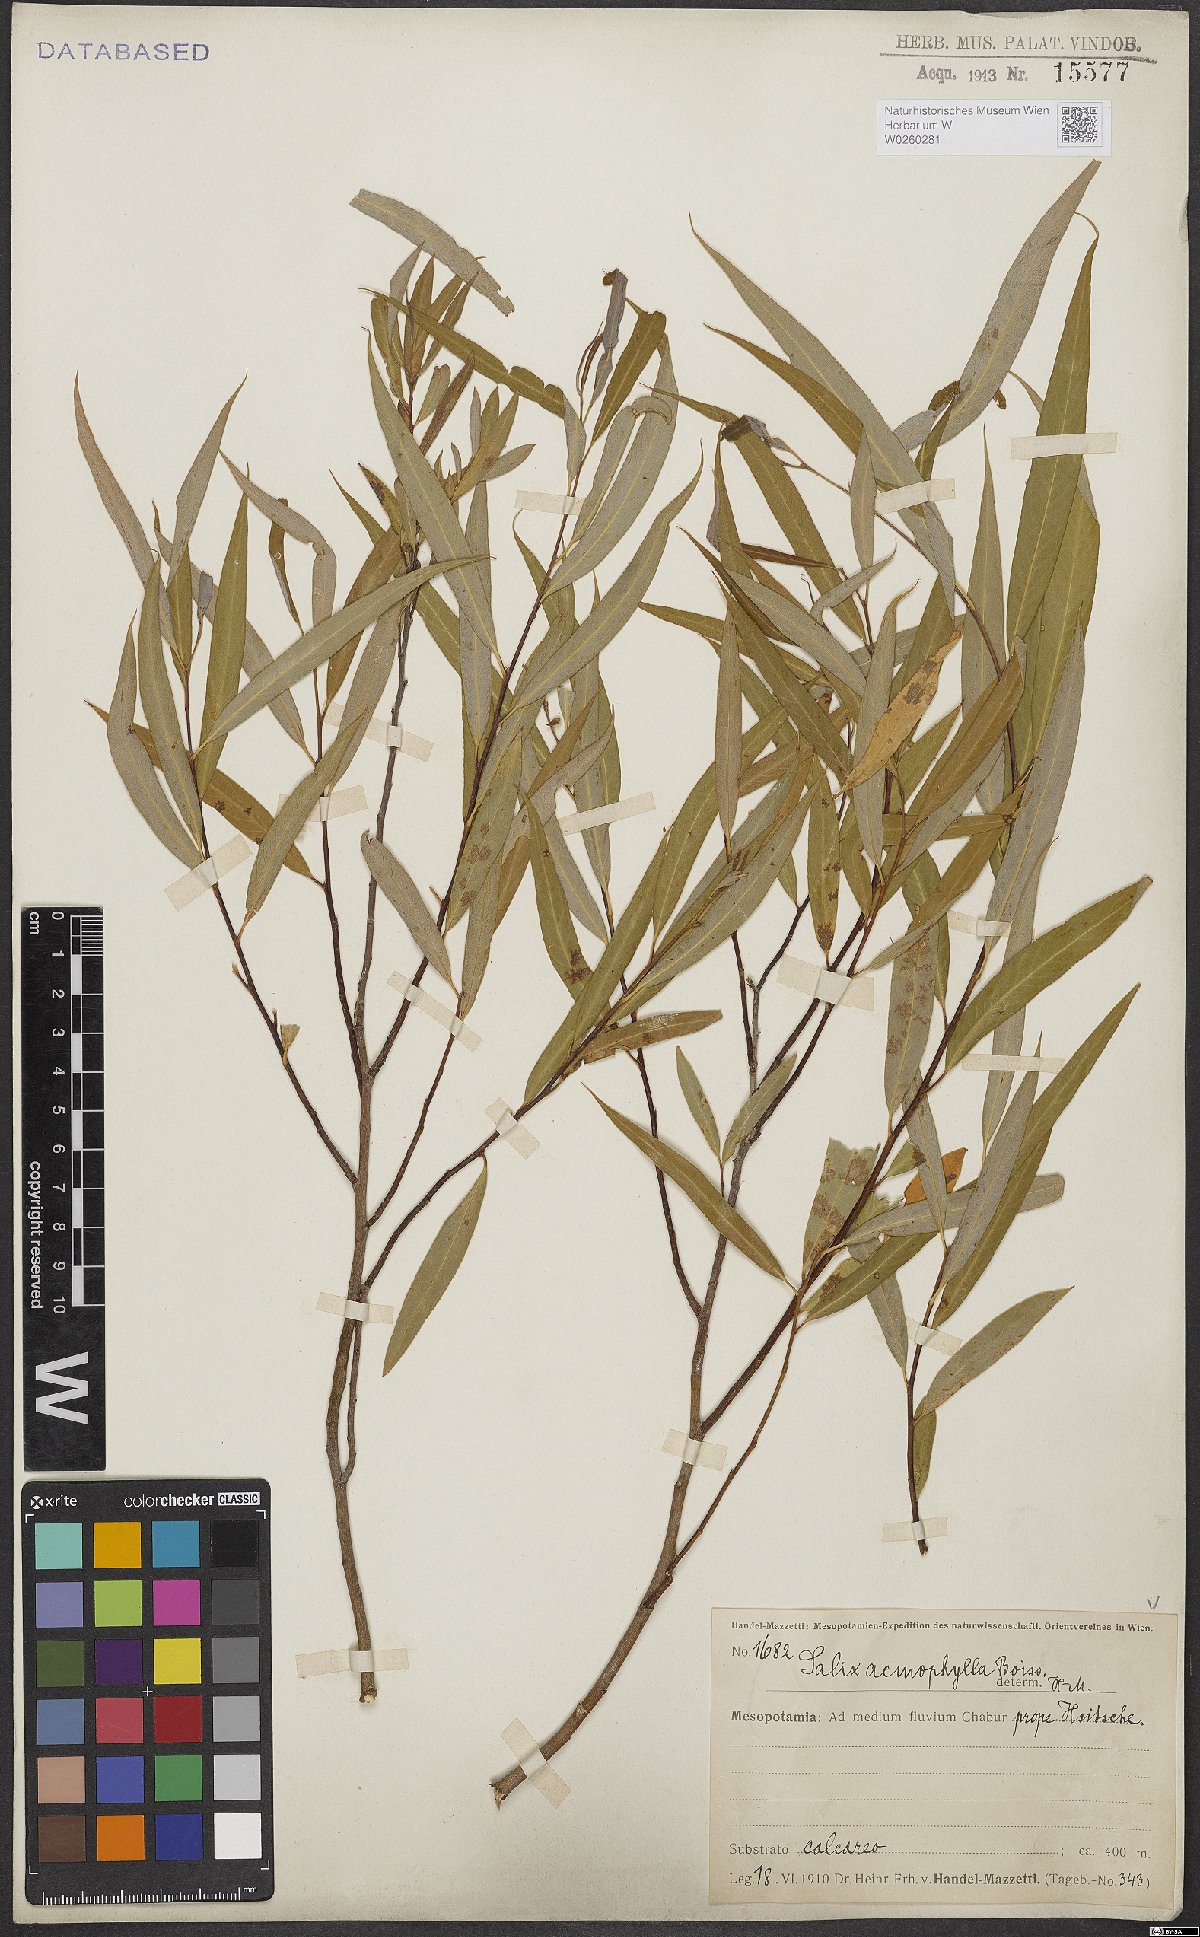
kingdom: Plantae
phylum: Tracheophyta
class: Magnoliopsida
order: Malpighiales
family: Salicaceae
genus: Salix
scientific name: Salix acmophylla
